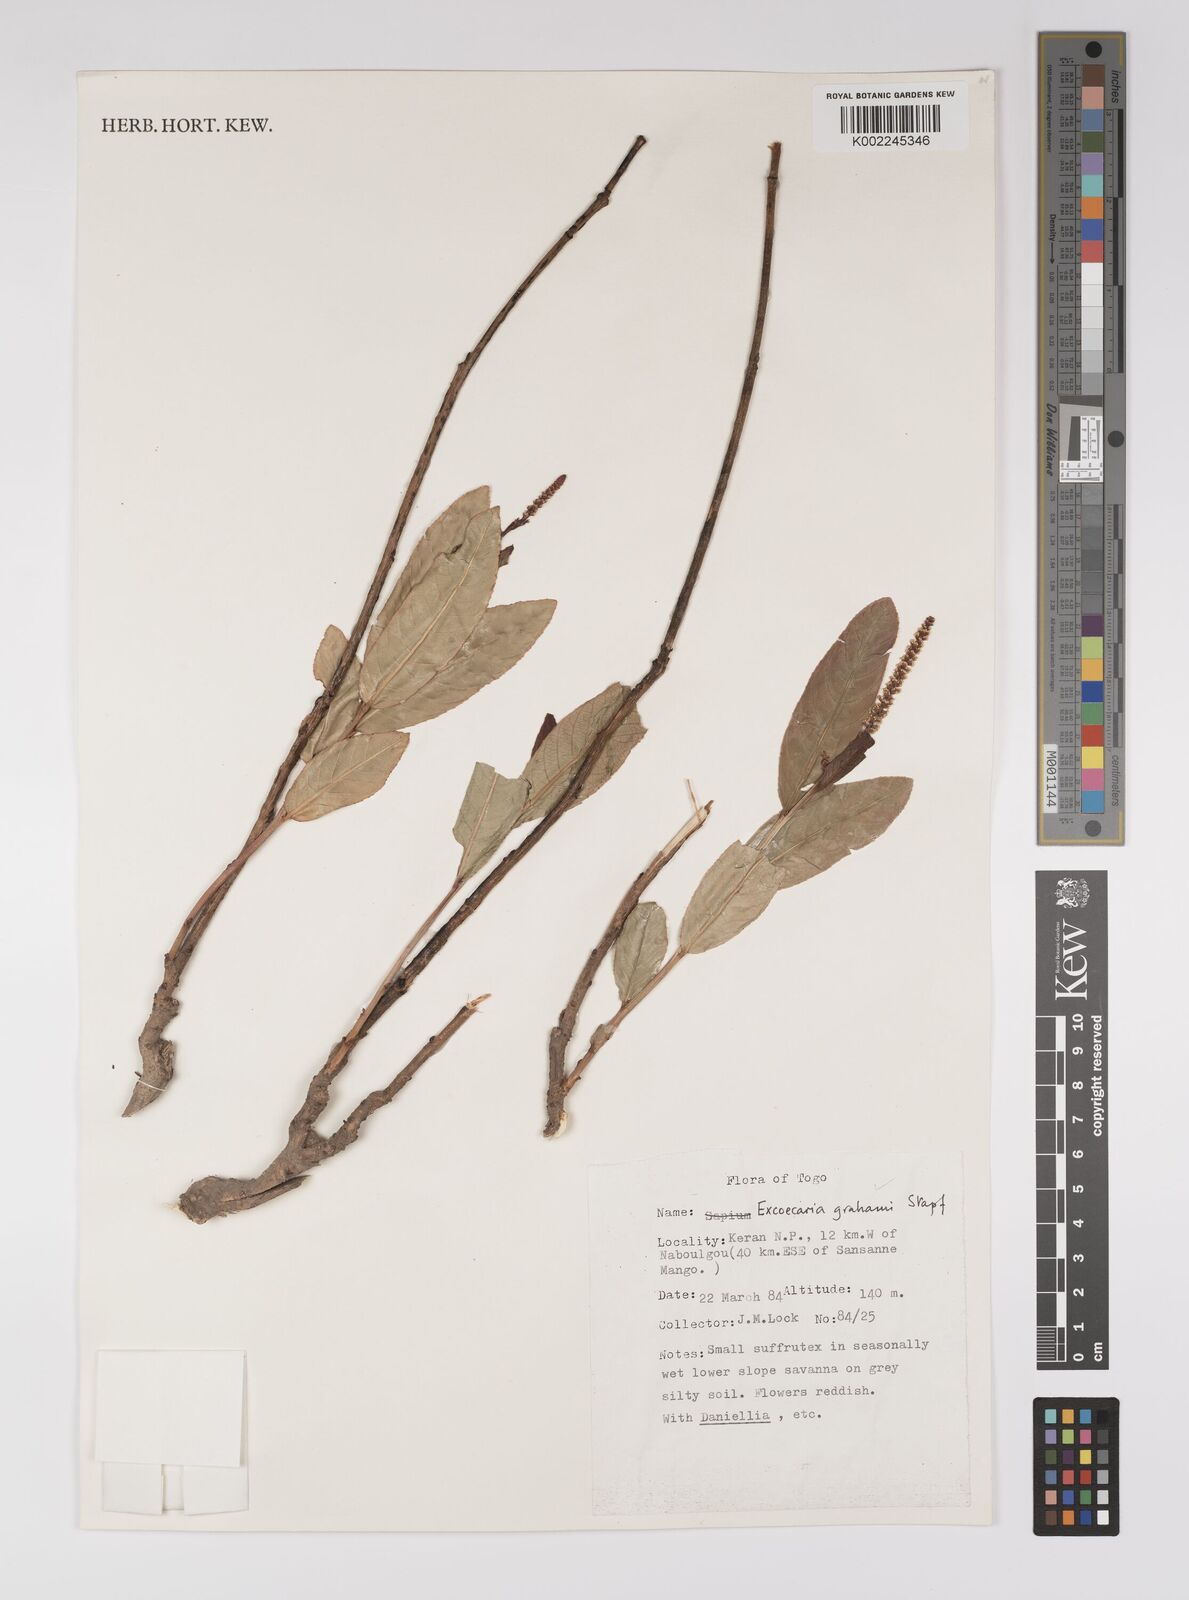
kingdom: Plantae
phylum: Tracheophyta
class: Magnoliopsida
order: Malpighiales
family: Euphorbiaceae
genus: Excoecaria
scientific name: Excoecaria grahamii
